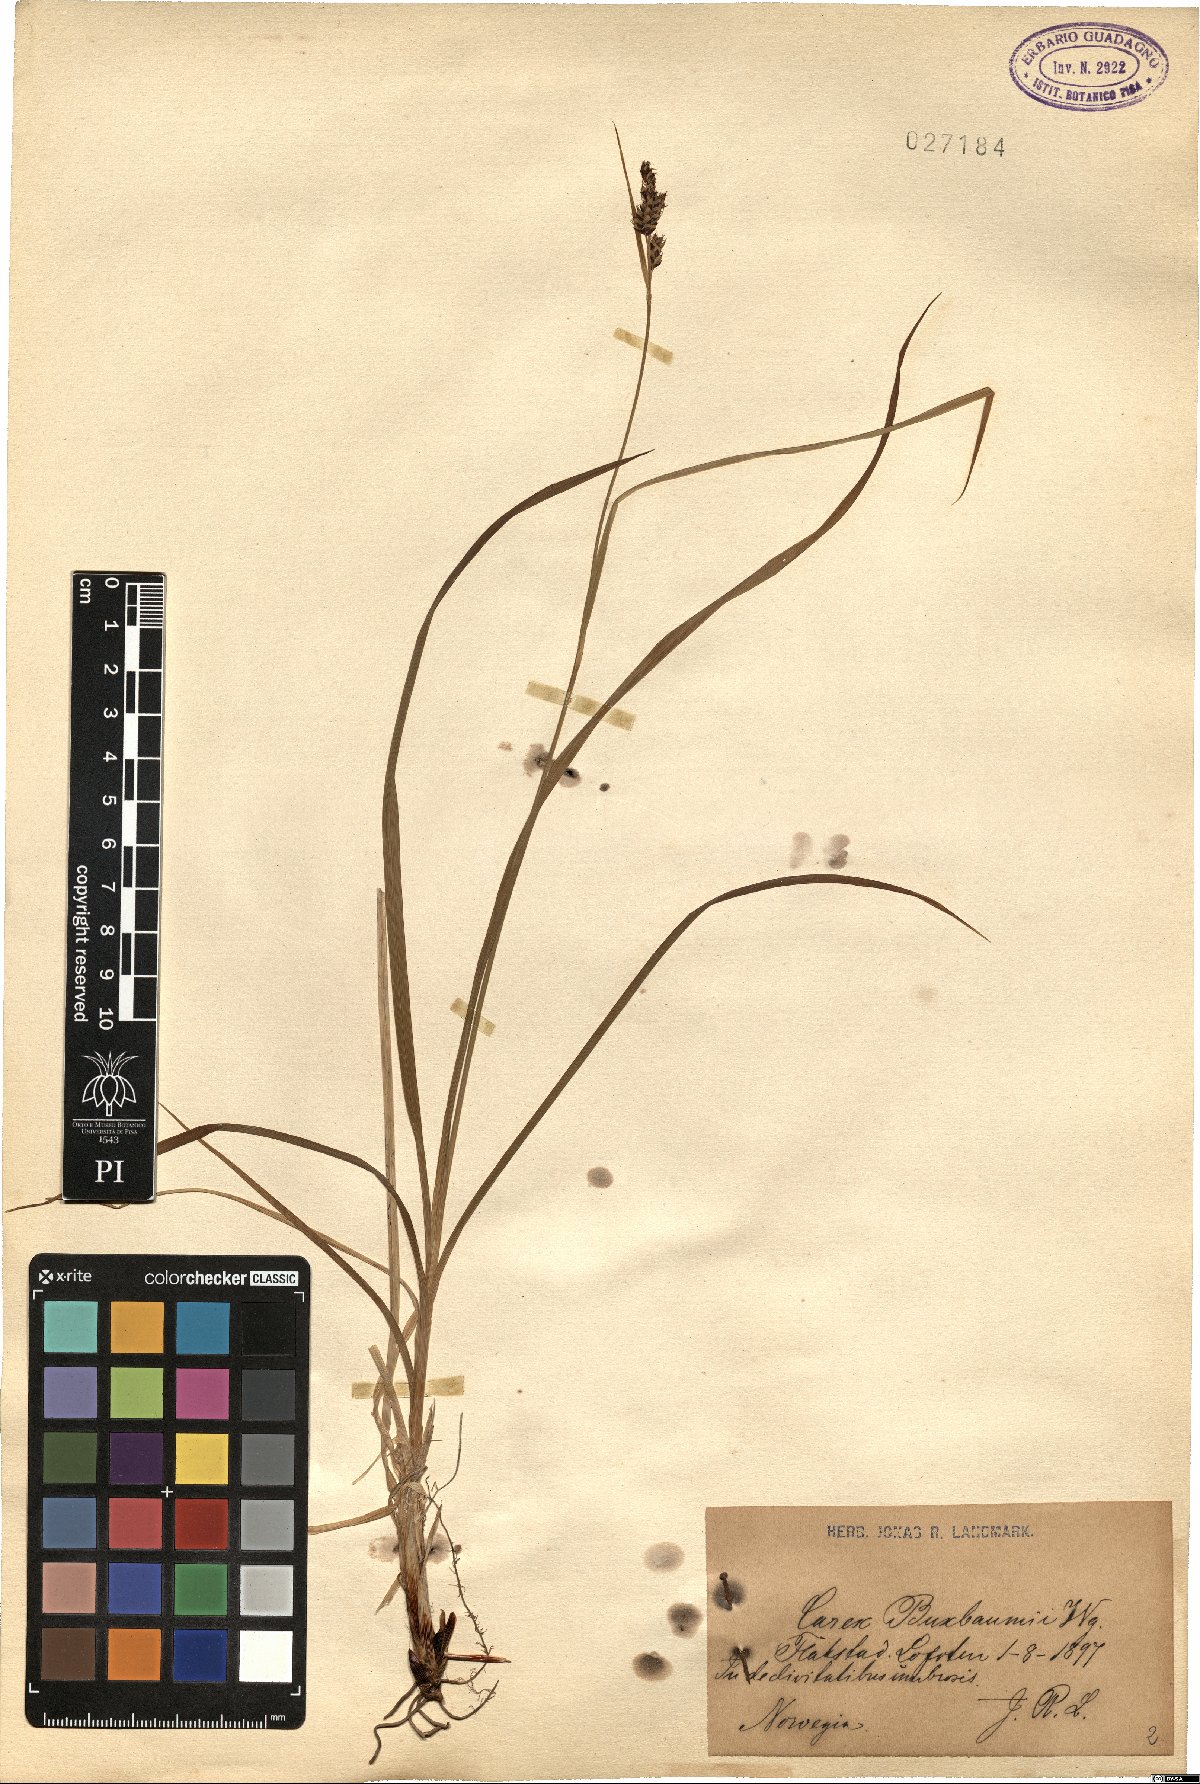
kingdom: Plantae
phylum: Tracheophyta
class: Liliopsida
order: Poales
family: Cyperaceae
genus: Carex
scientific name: Carex buxbaumii
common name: Club sedge
